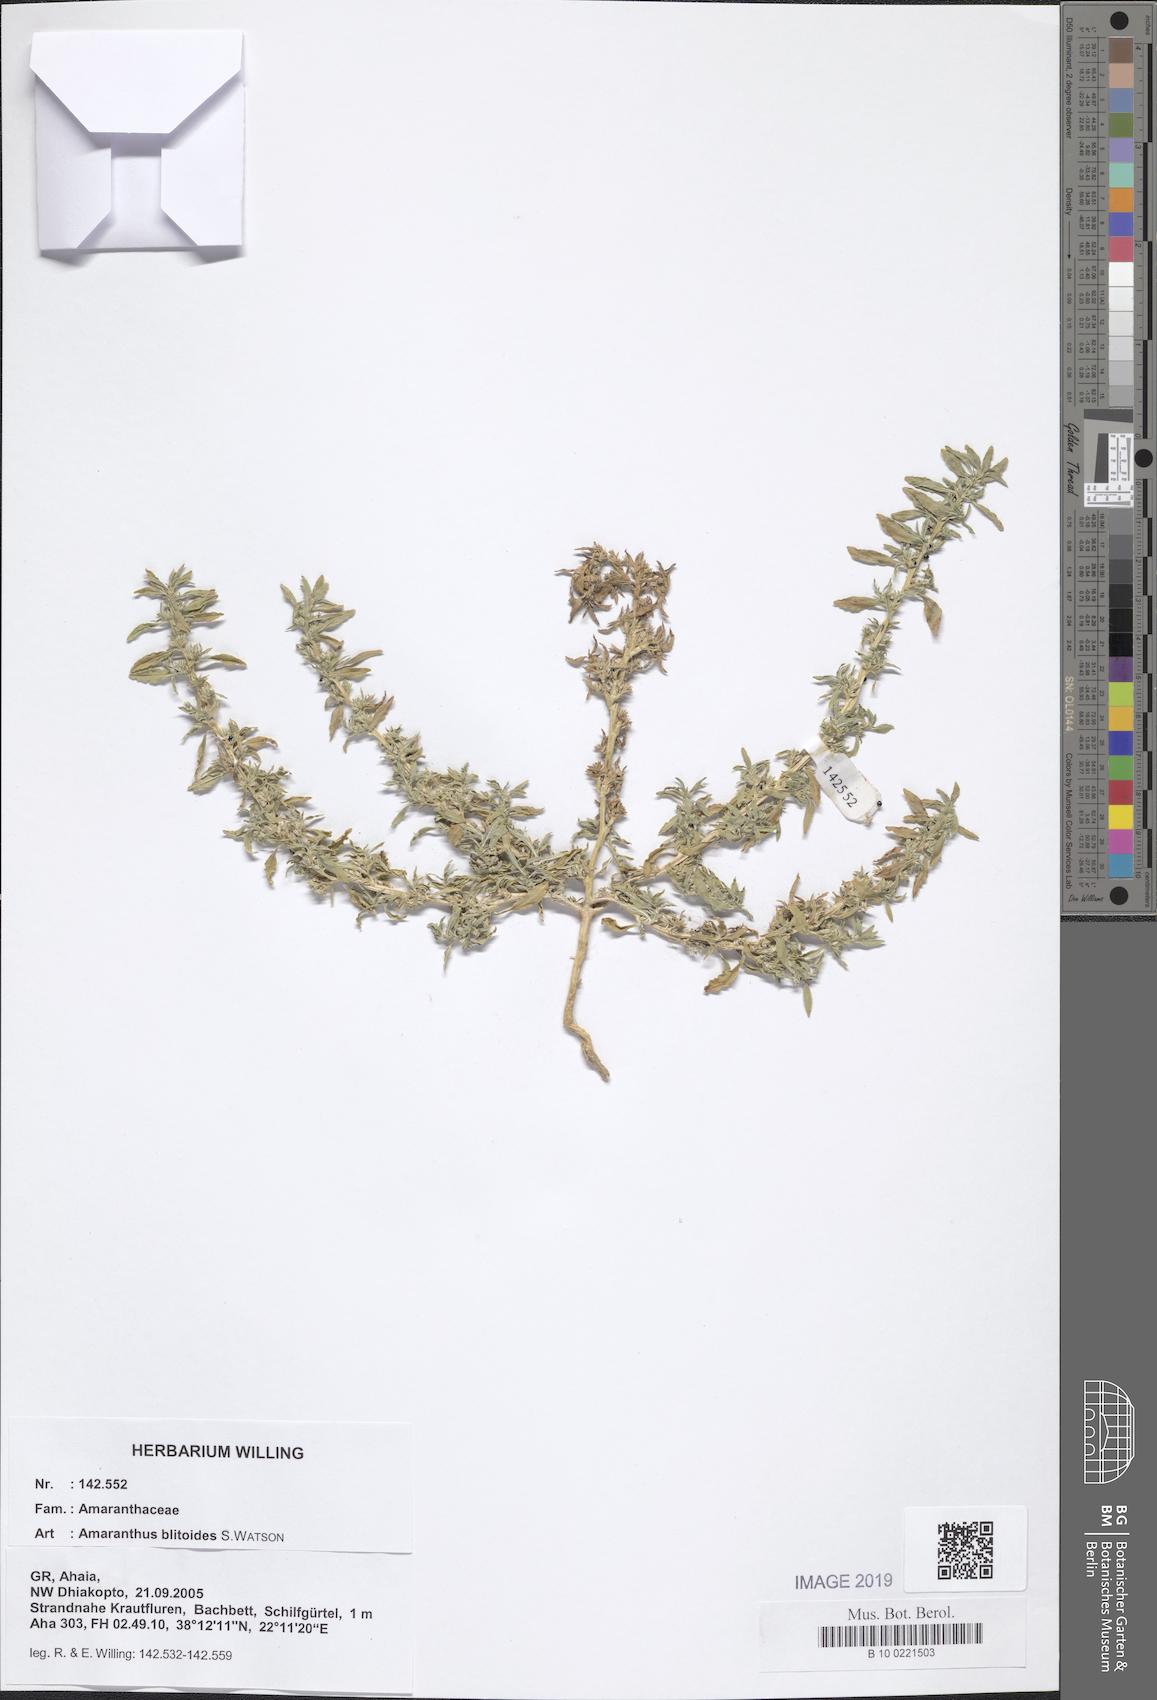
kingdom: Plantae
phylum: Tracheophyta
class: Magnoliopsida
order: Caryophyllales
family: Amaranthaceae
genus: Amaranthus
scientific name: Amaranthus blitoides
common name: Prostrate pigweed
